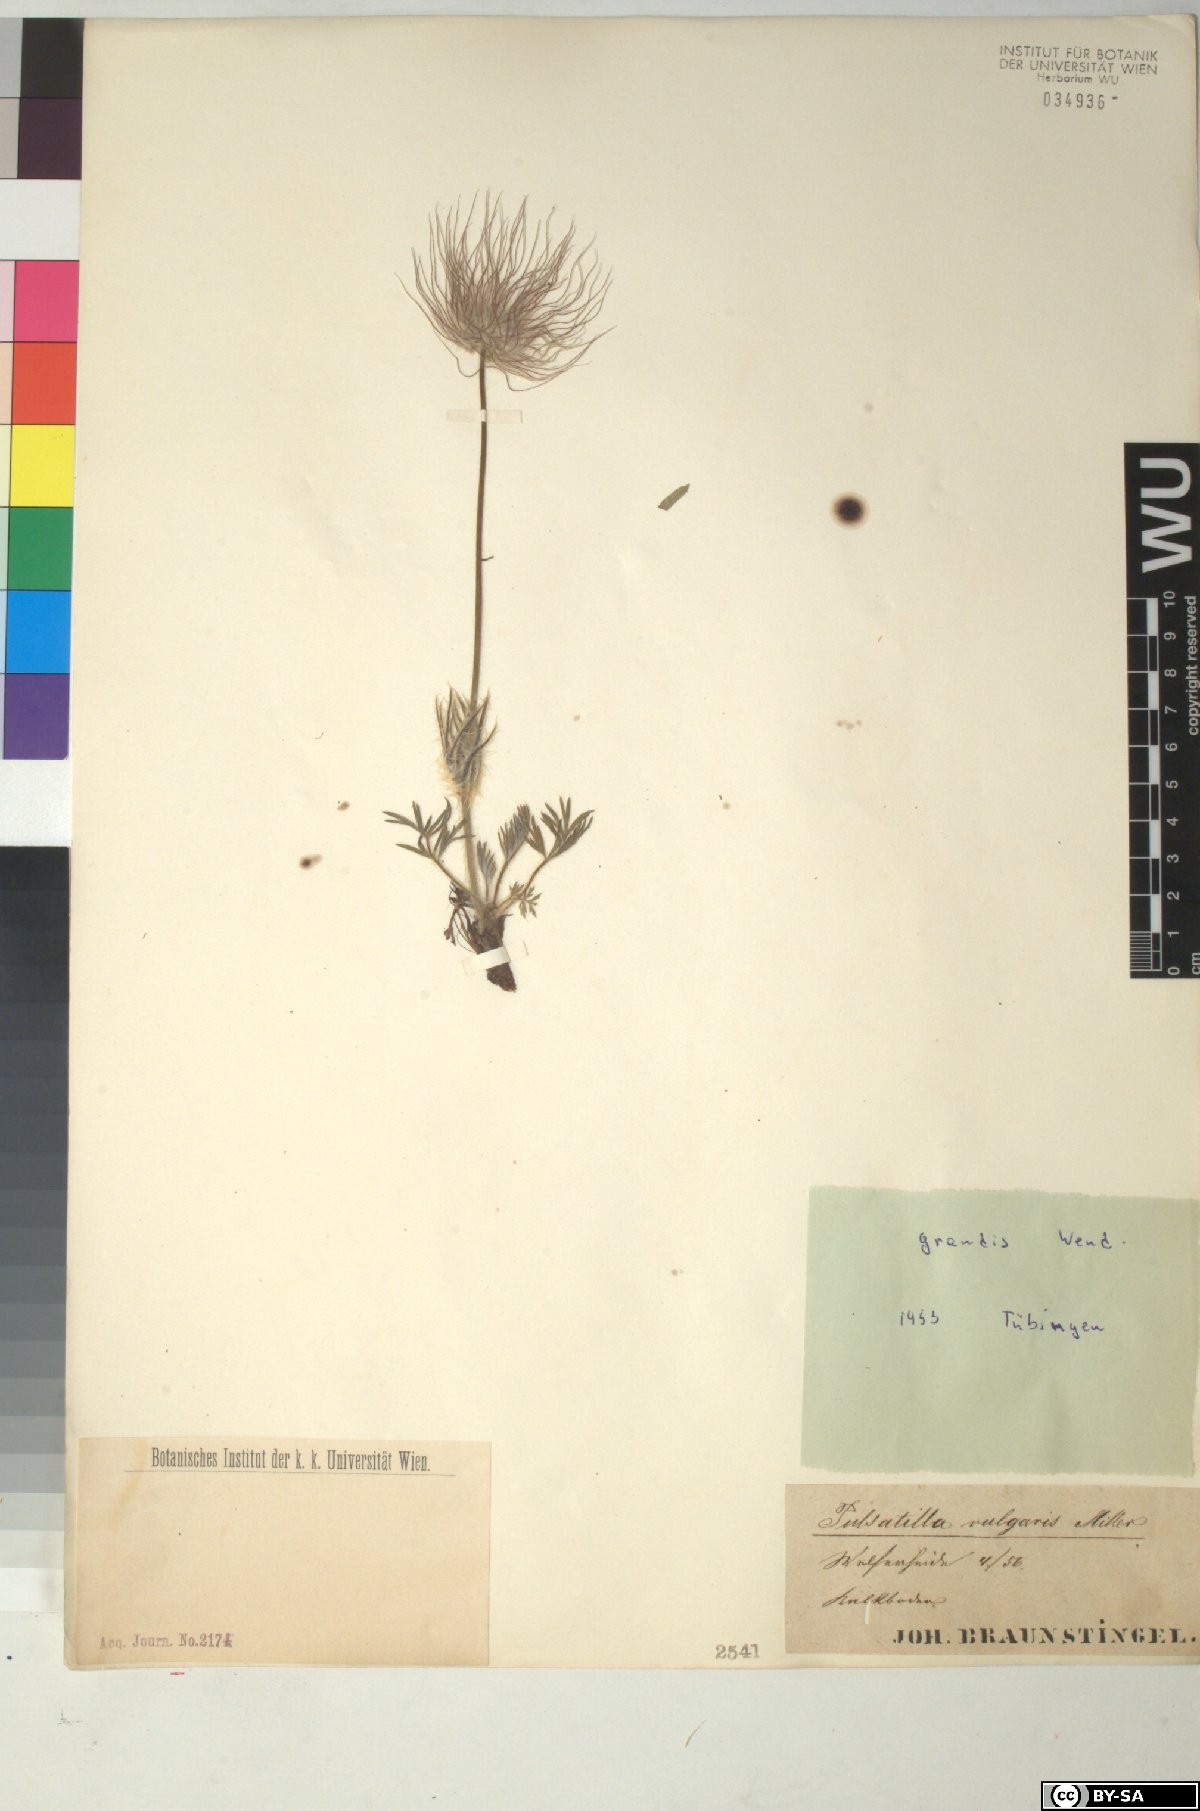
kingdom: Plantae
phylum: Tracheophyta
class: Magnoliopsida
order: Ranunculales
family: Ranunculaceae
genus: Pulsatilla
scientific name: Pulsatilla grandis
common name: Greater pasque flower
